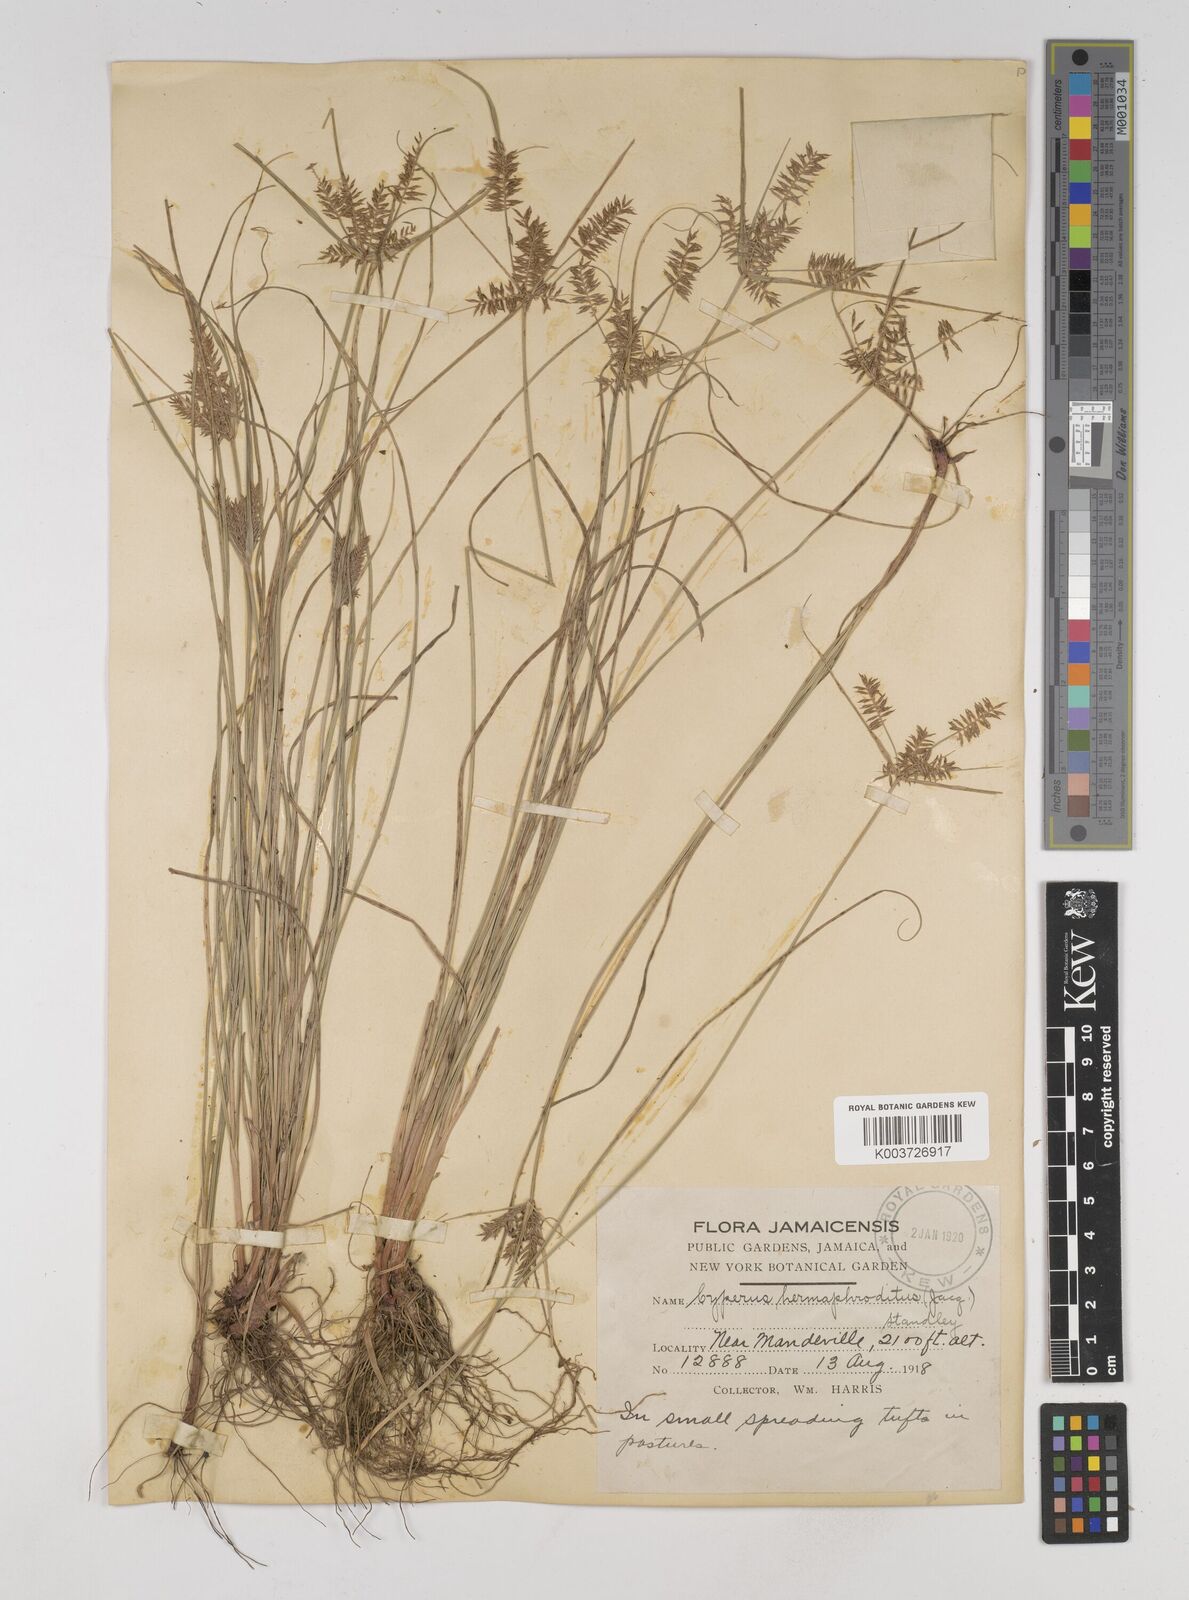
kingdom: Plantae
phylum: Tracheophyta
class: Liliopsida
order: Poales
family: Cyperaceae
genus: Cyperus
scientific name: Cyperus hermaphroditus
